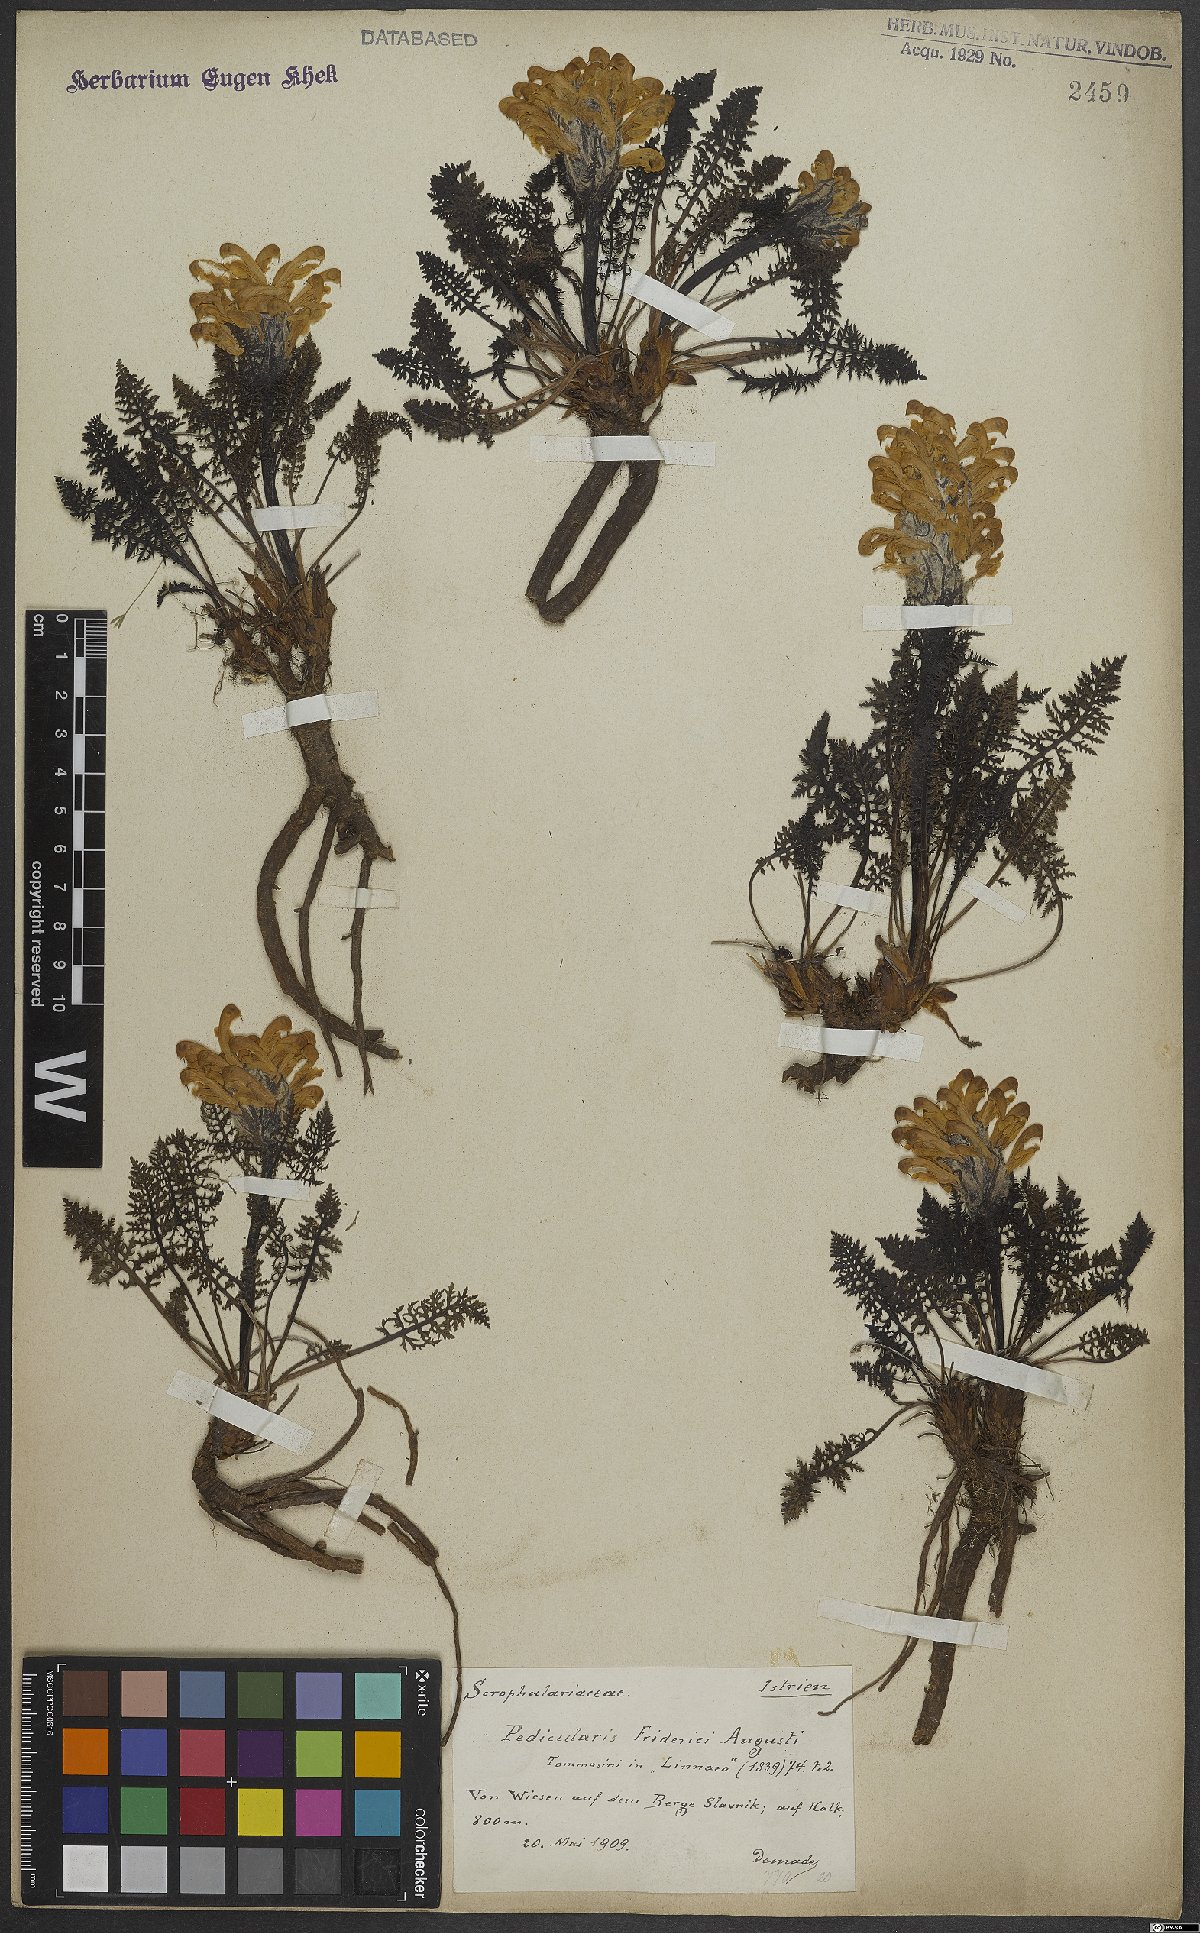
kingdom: Plantae
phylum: Tracheophyta
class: Magnoliopsida
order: Lamiales
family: Orobanchaceae
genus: Pedicularis
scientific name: Pedicularis friderici-augusti
